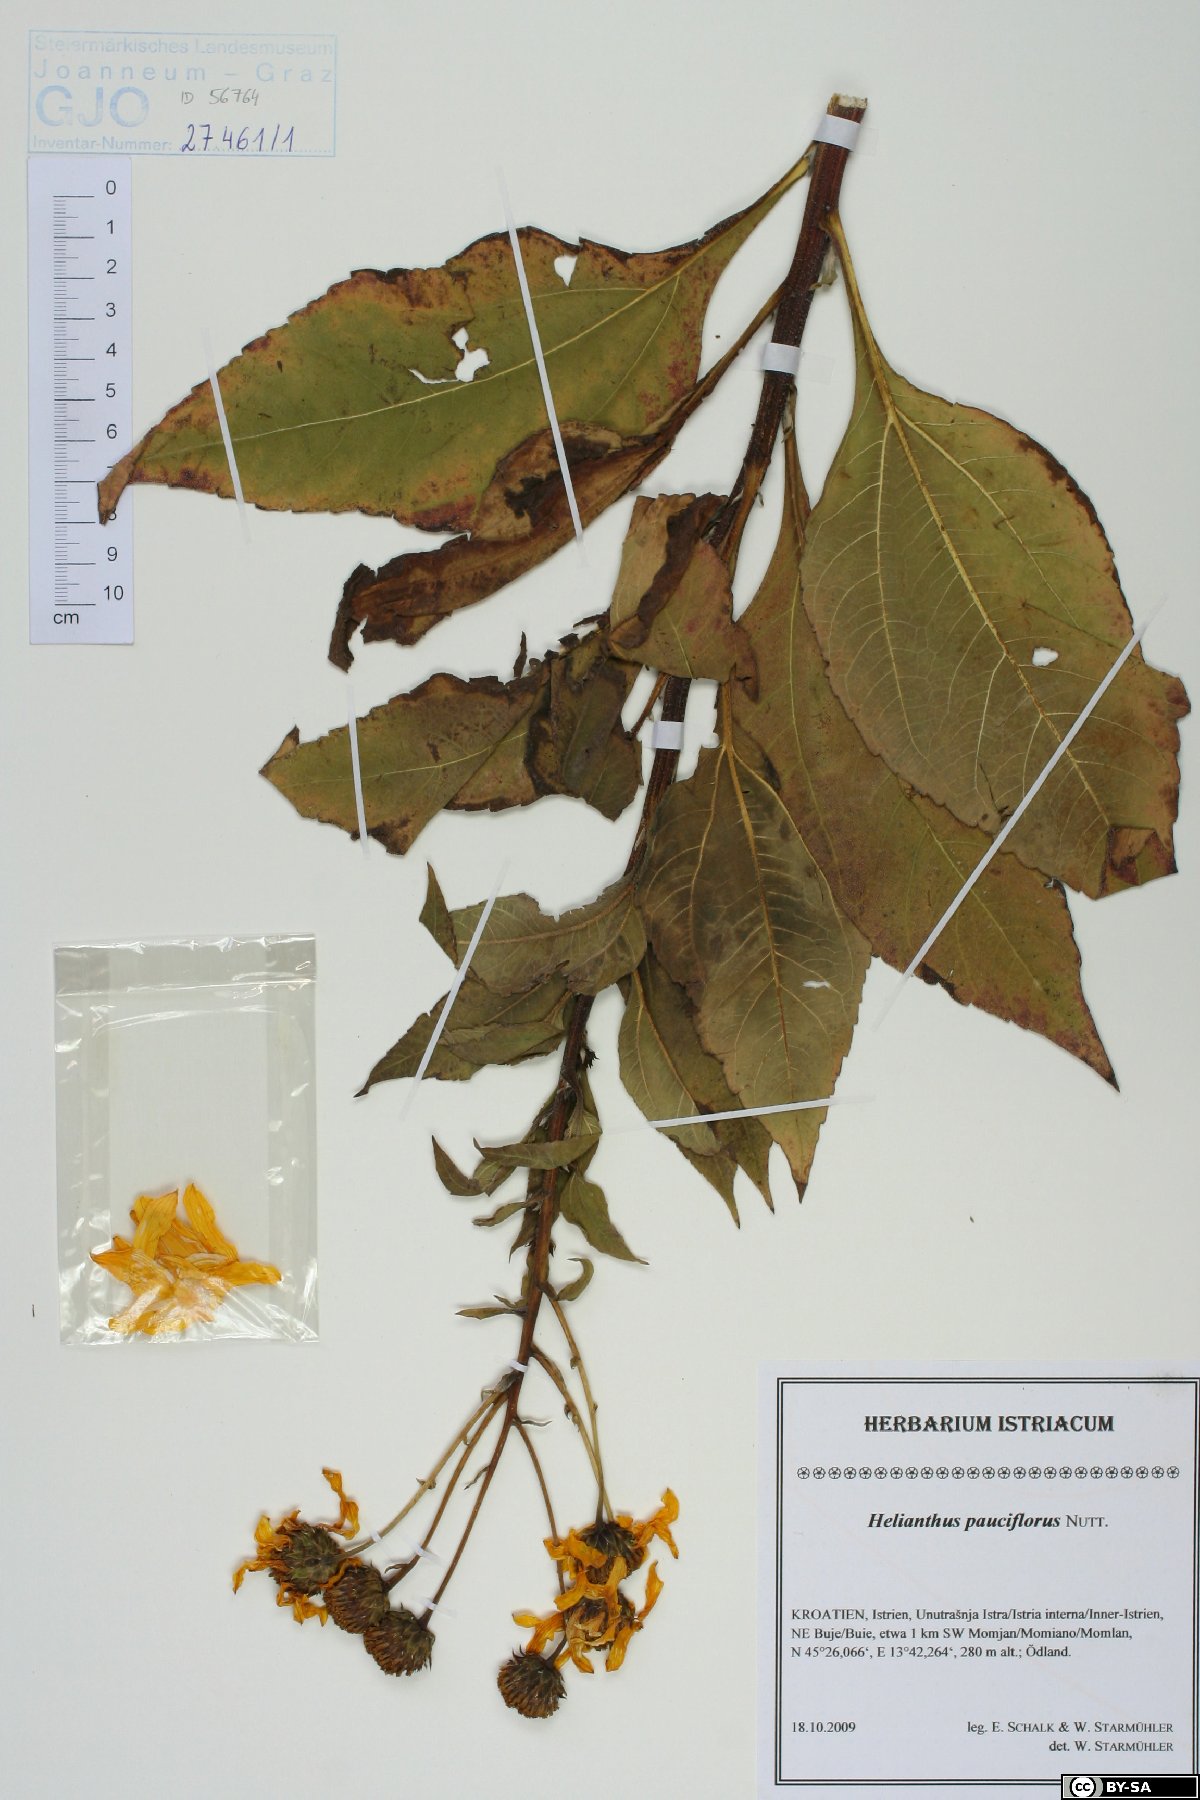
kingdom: Plantae
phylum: Tracheophyta
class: Magnoliopsida
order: Asterales
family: Asteraceae
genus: Helianthus
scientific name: Helianthus pauciflorus
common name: Stiff sunflower
